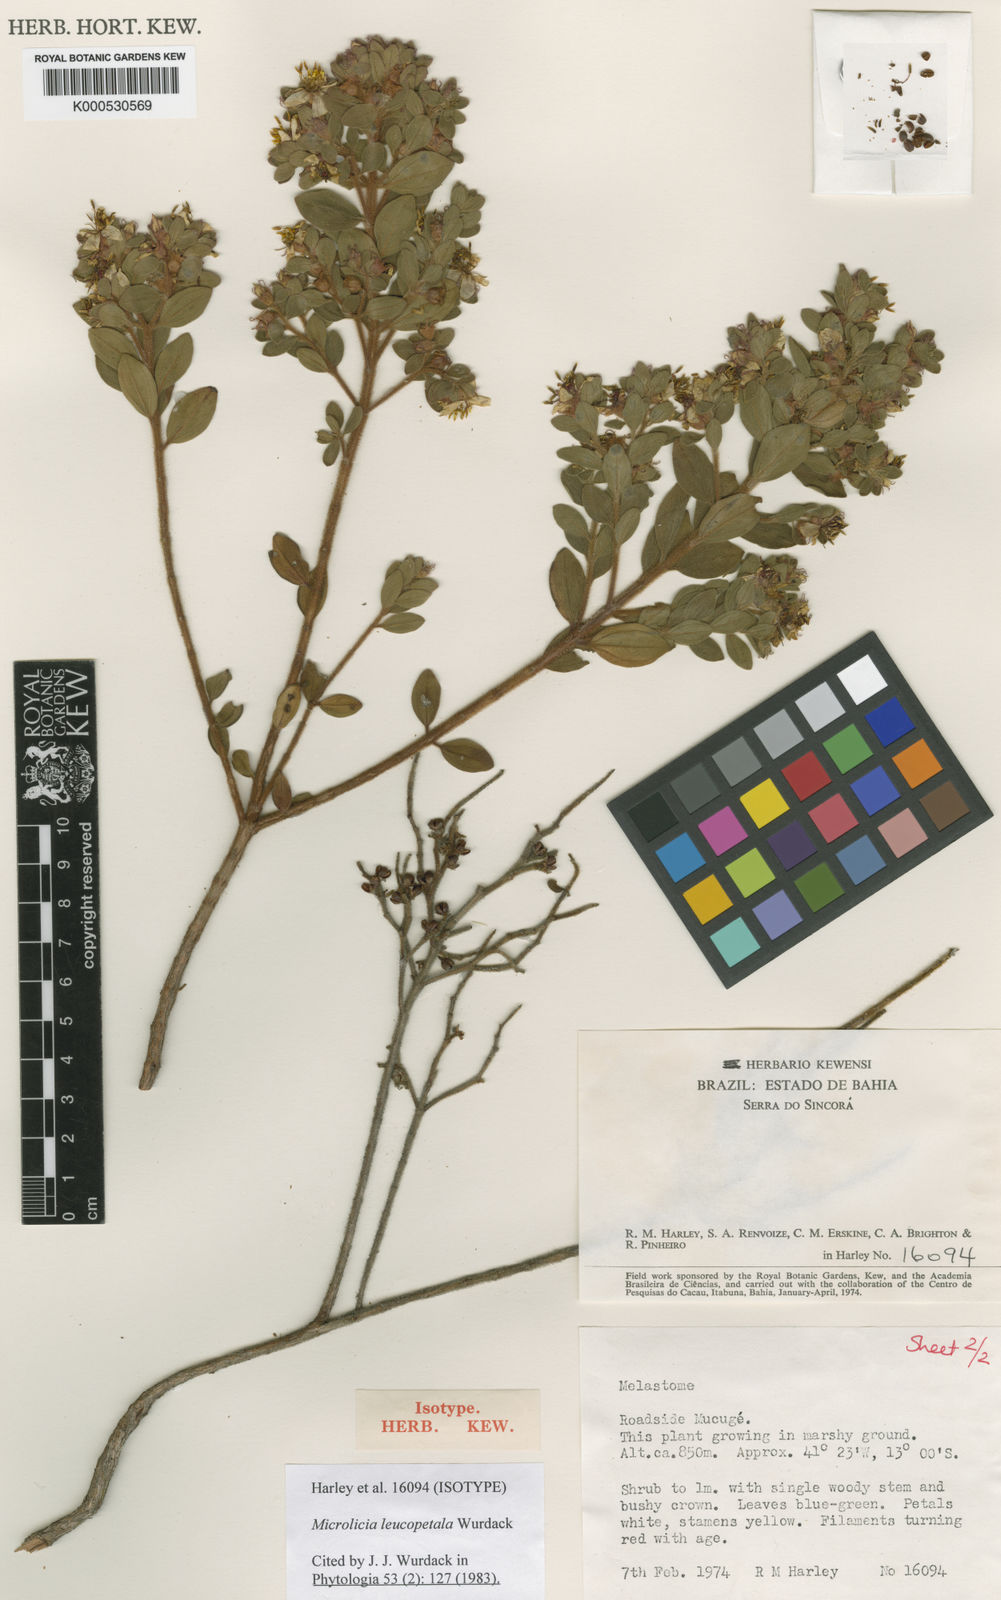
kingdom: Plantae
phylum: Tracheophyta
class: Magnoliopsida
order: Myrtales
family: Melastomataceae
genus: Microlicia
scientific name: Microlicia leucopetala
